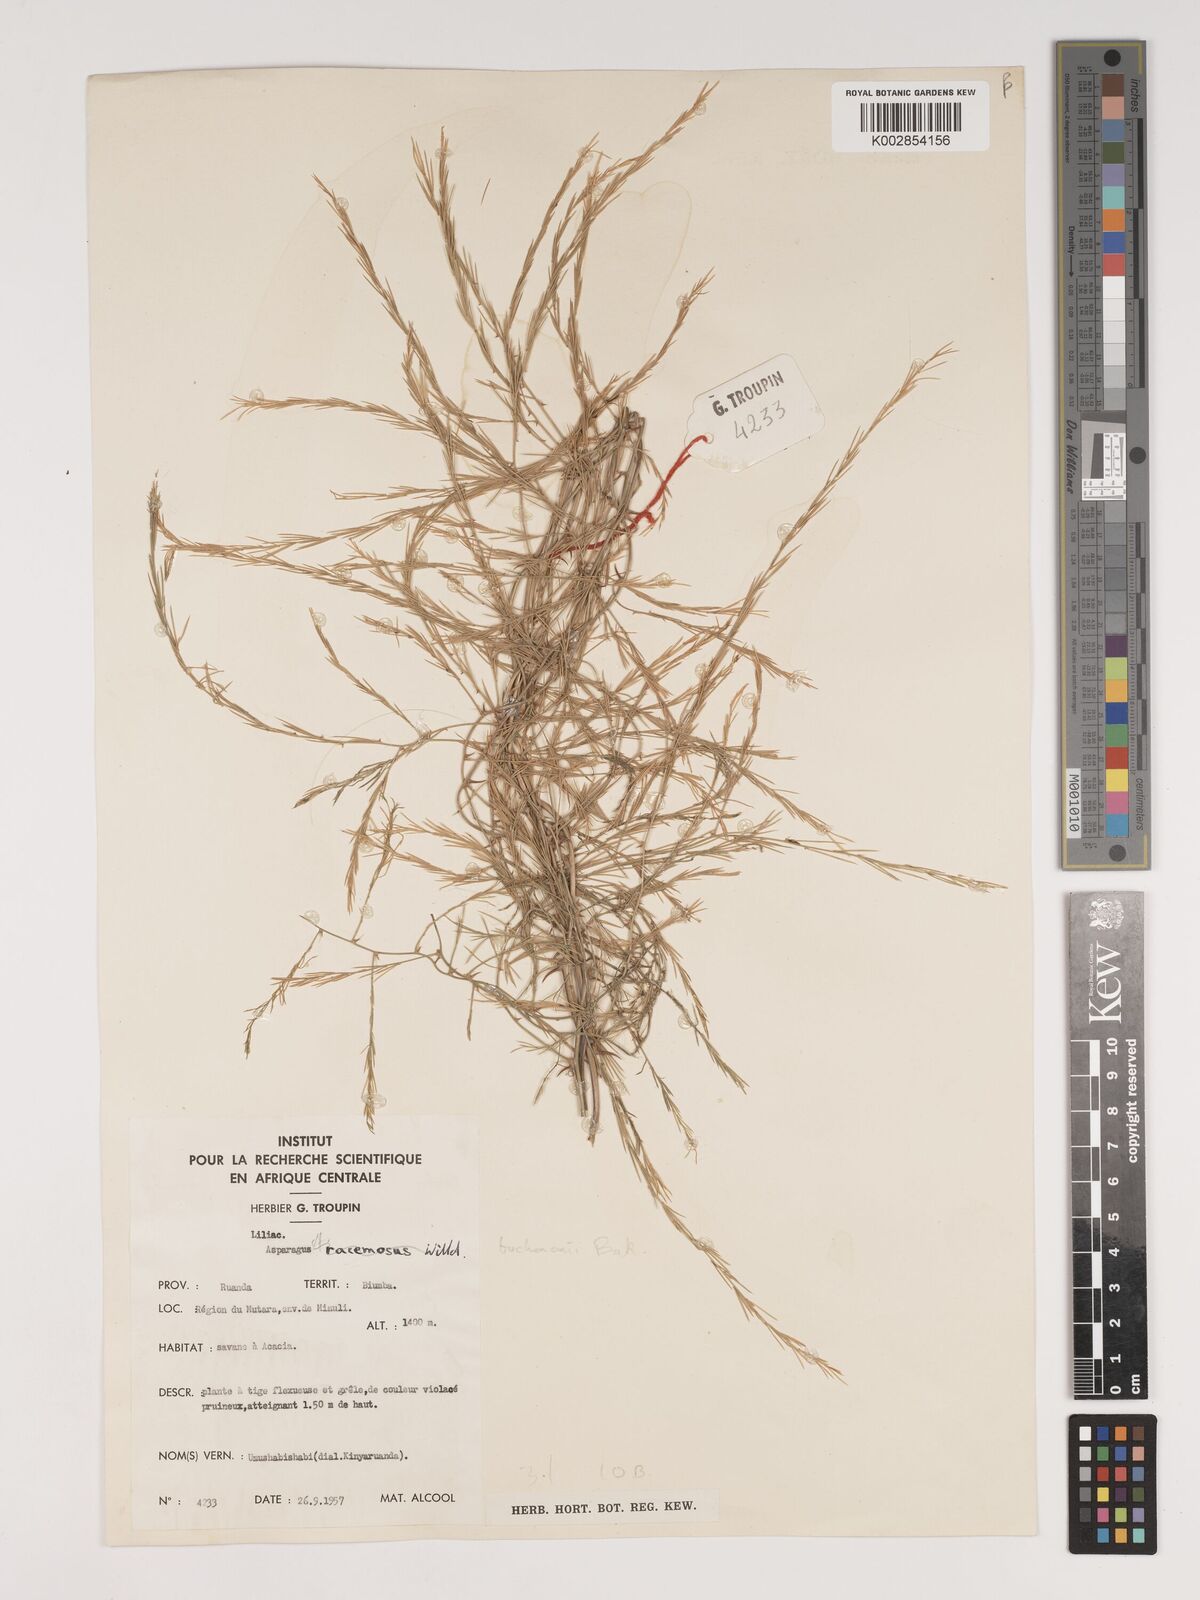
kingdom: Plantae
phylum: Tracheophyta
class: Liliopsida
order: Asparagales
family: Asparagaceae
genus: Asparagus
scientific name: Asparagus buchananii
